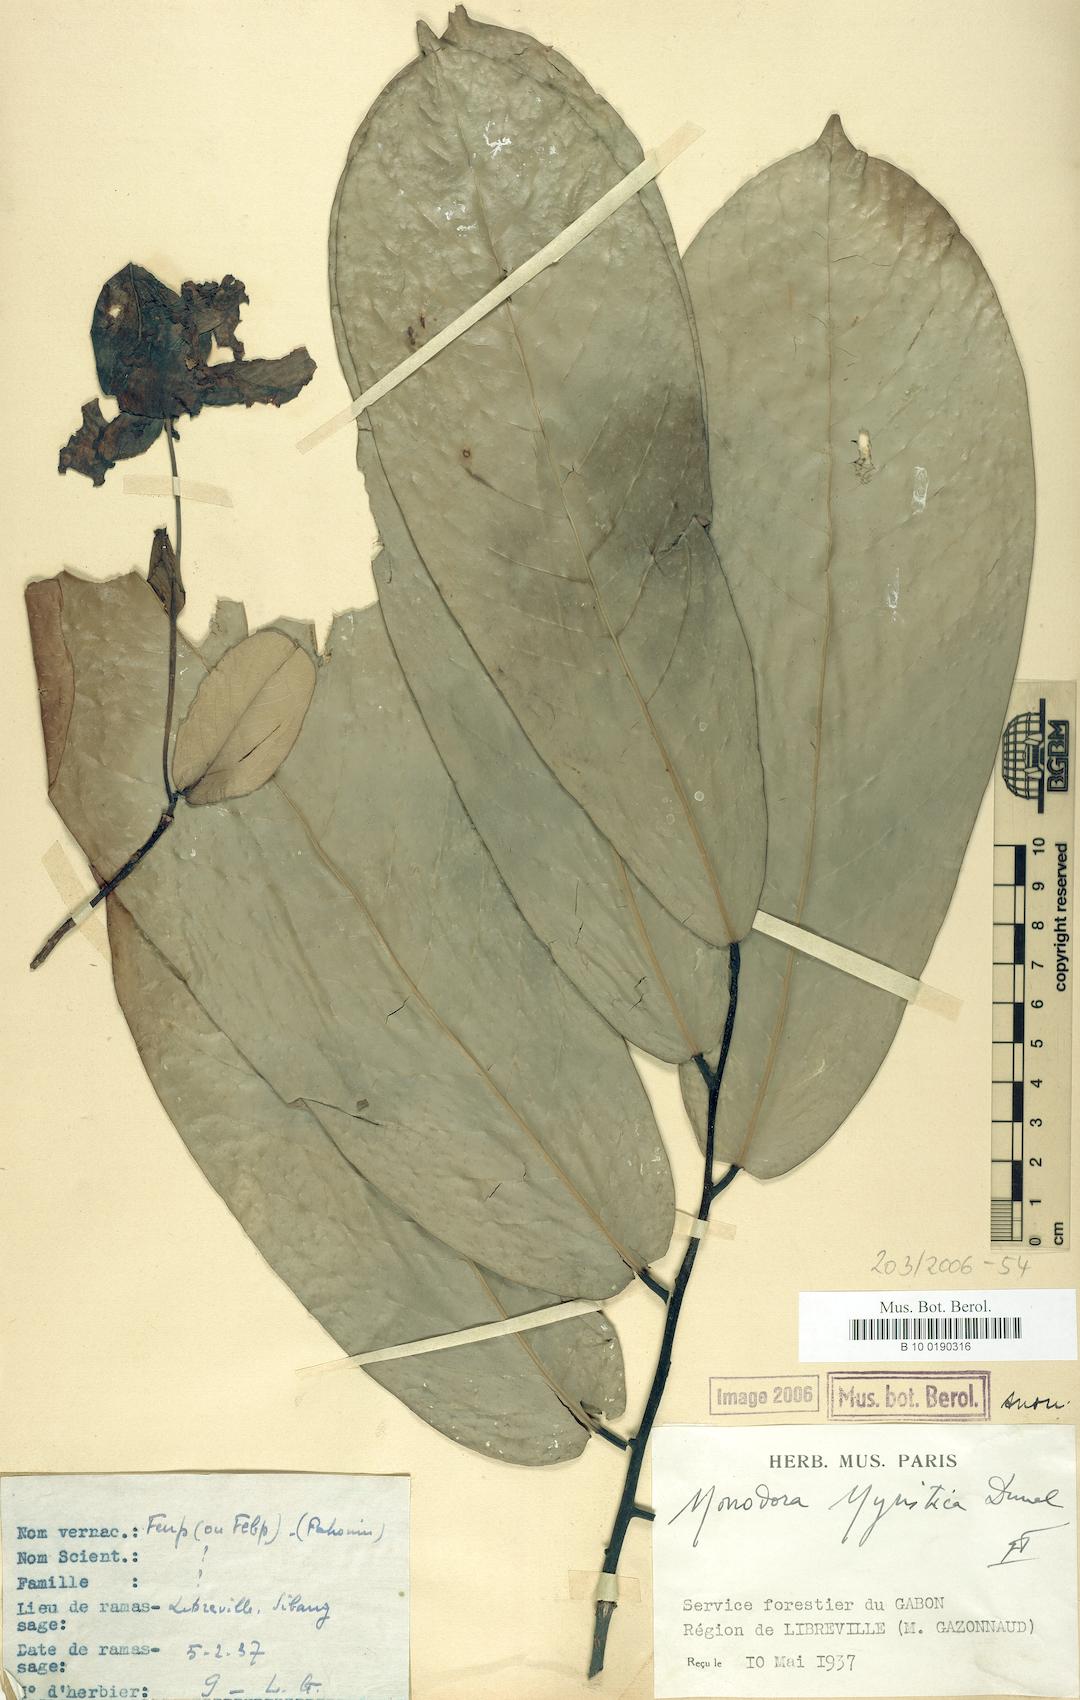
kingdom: Plantae
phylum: Tracheophyta
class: Magnoliopsida
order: Magnoliales
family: Annonaceae
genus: Monodora
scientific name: Monodora myristica
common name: African nutmeg
